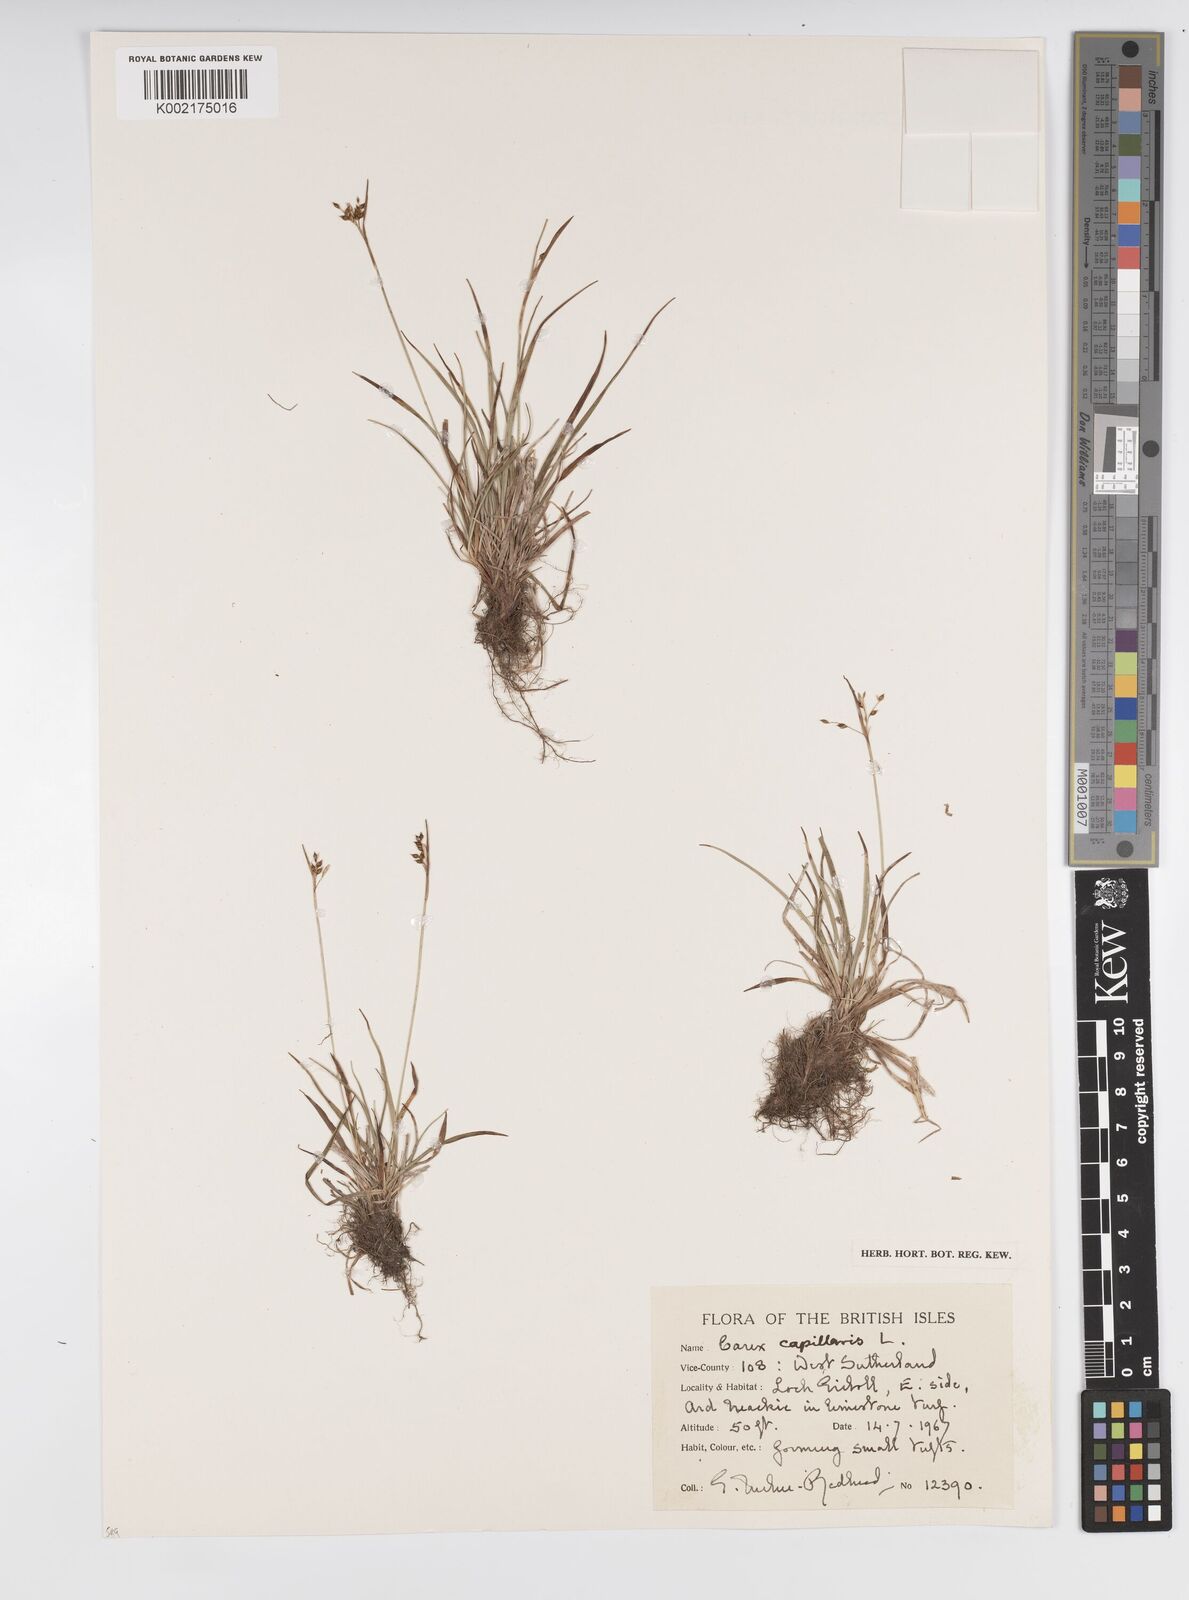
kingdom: Plantae
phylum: Tracheophyta
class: Liliopsida
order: Poales
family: Cyperaceae
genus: Carex
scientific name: Carex capillaris
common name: Hair sedge
